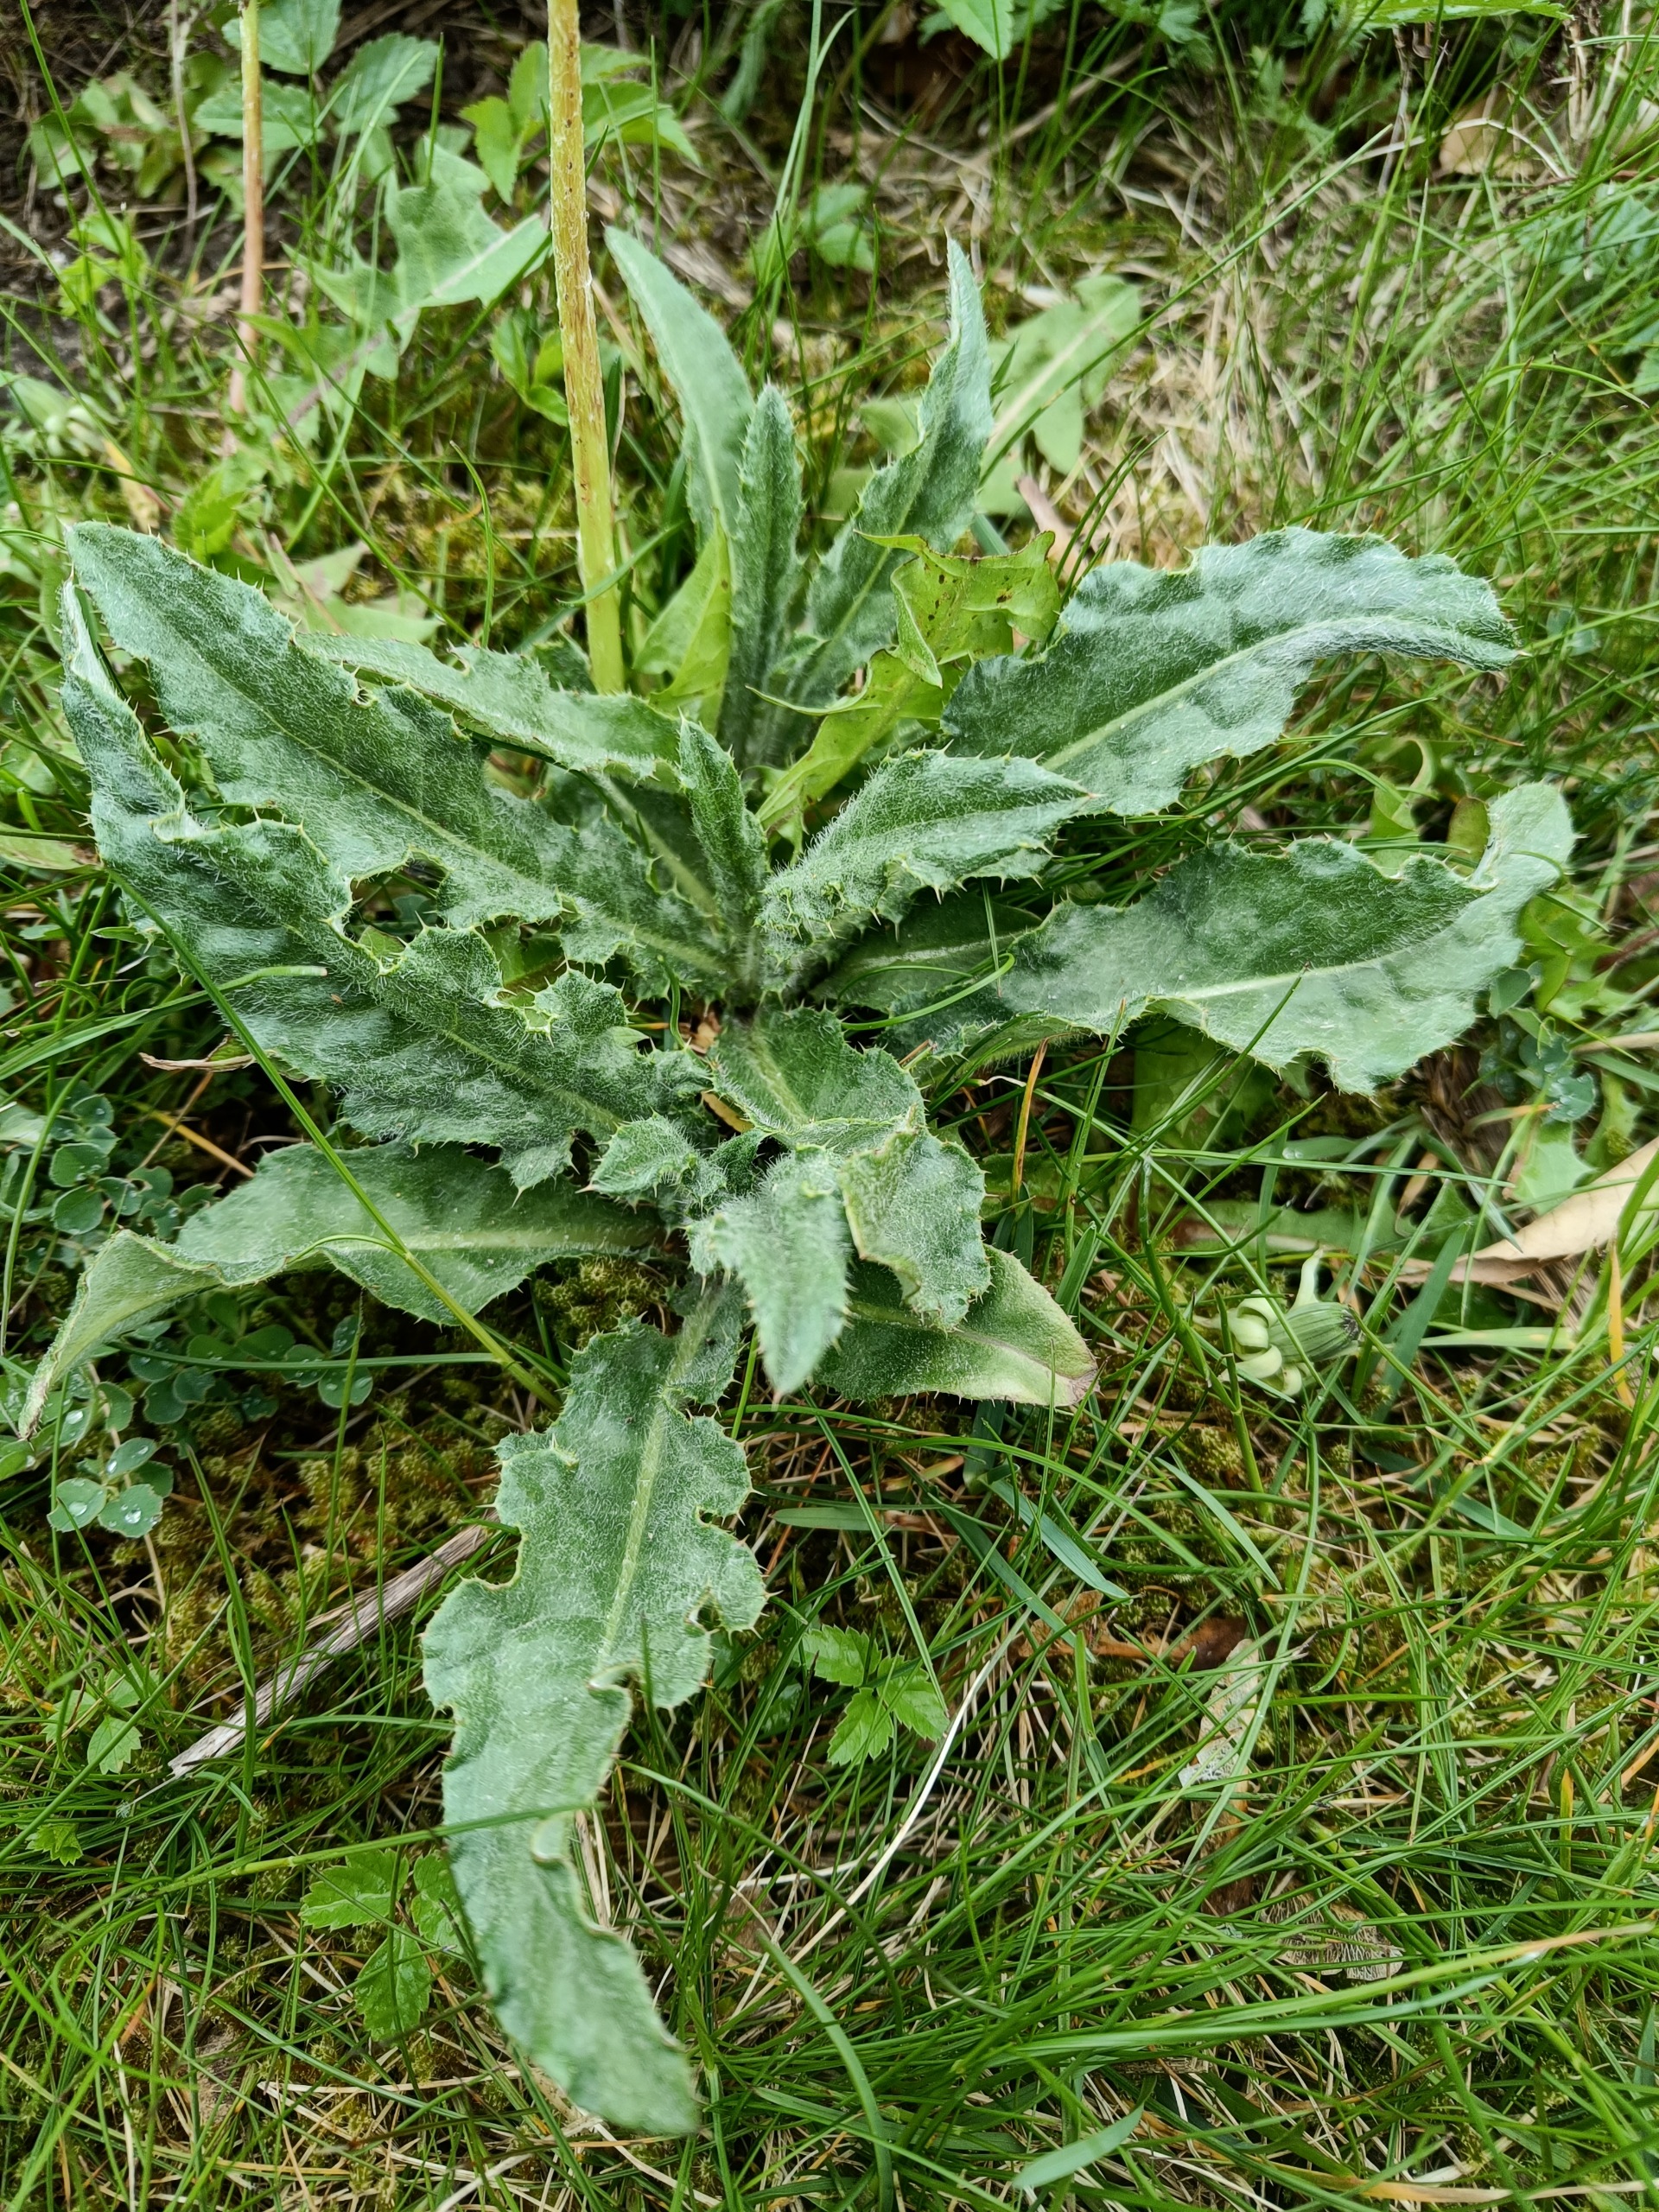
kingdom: Plantae
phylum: Tracheophyta
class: Magnoliopsida
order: Asterales
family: Asteraceae
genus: Cirsium
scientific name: Cirsium arvense
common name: Ager-tidsel
